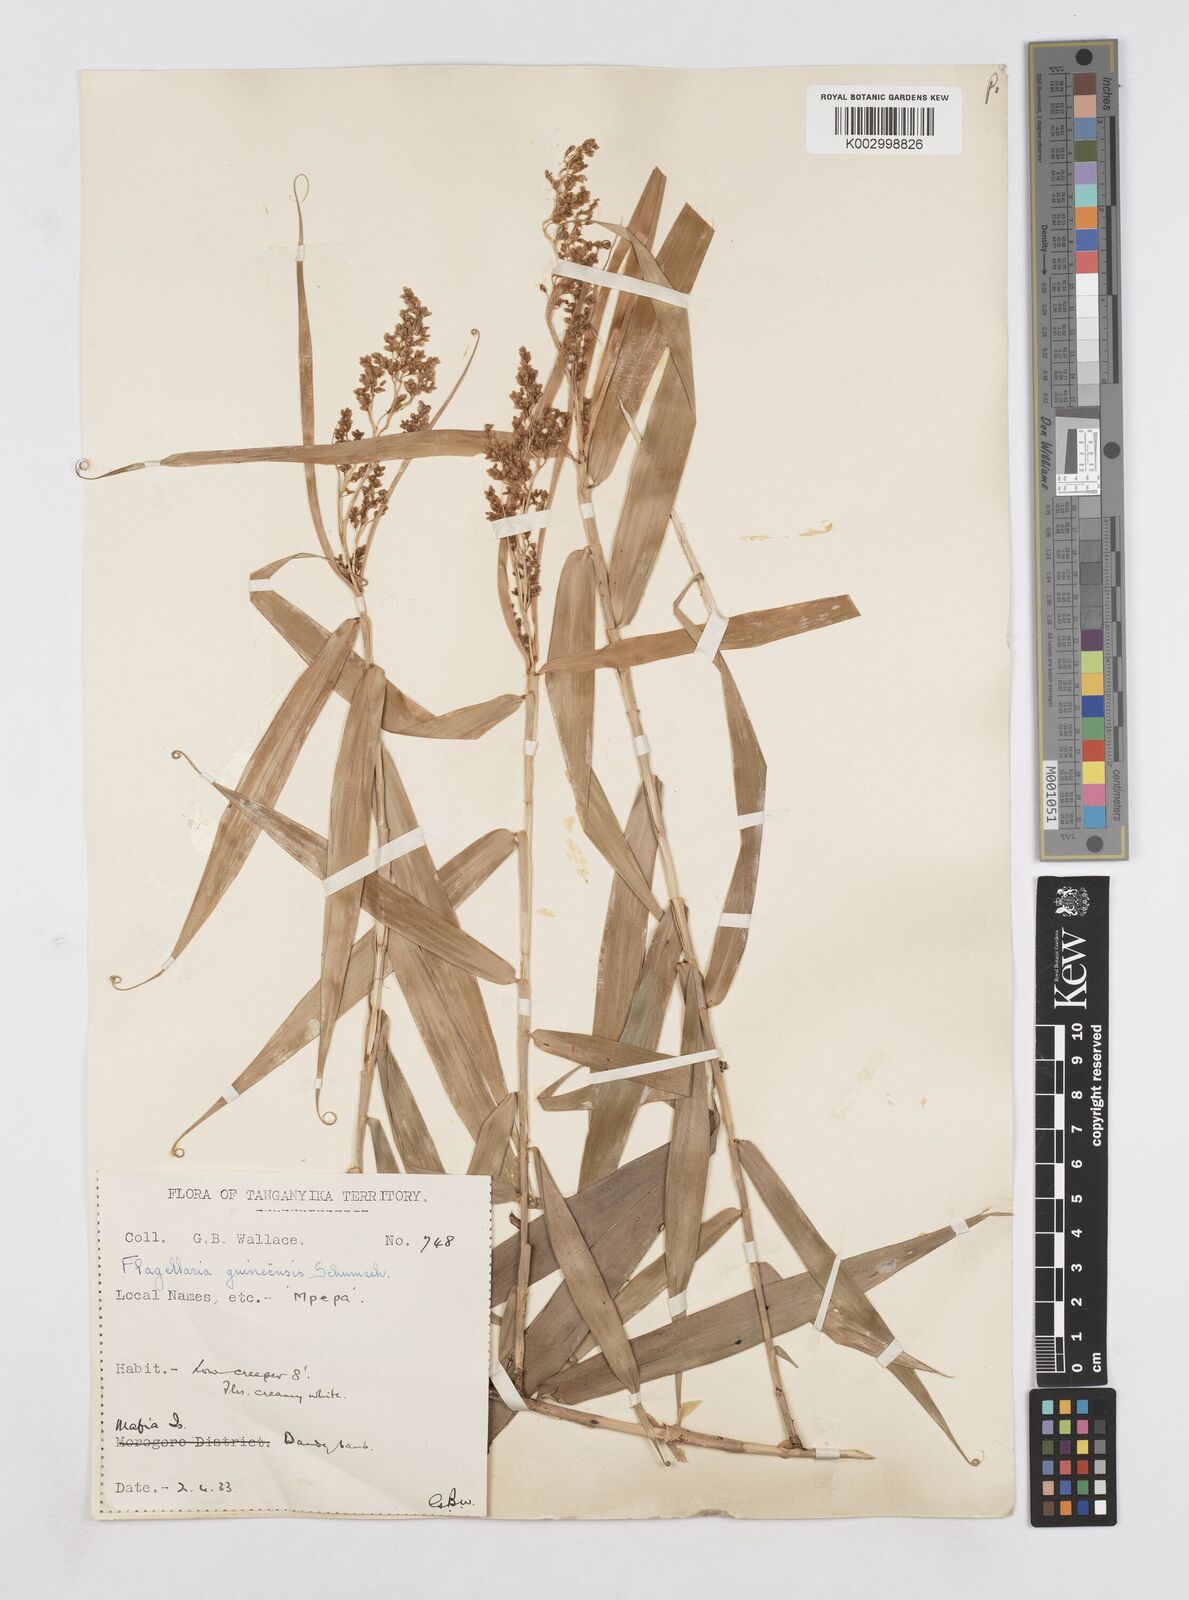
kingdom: Plantae
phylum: Tracheophyta
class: Liliopsida
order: Poales
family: Flagellariaceae
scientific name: Flagellariaceae
